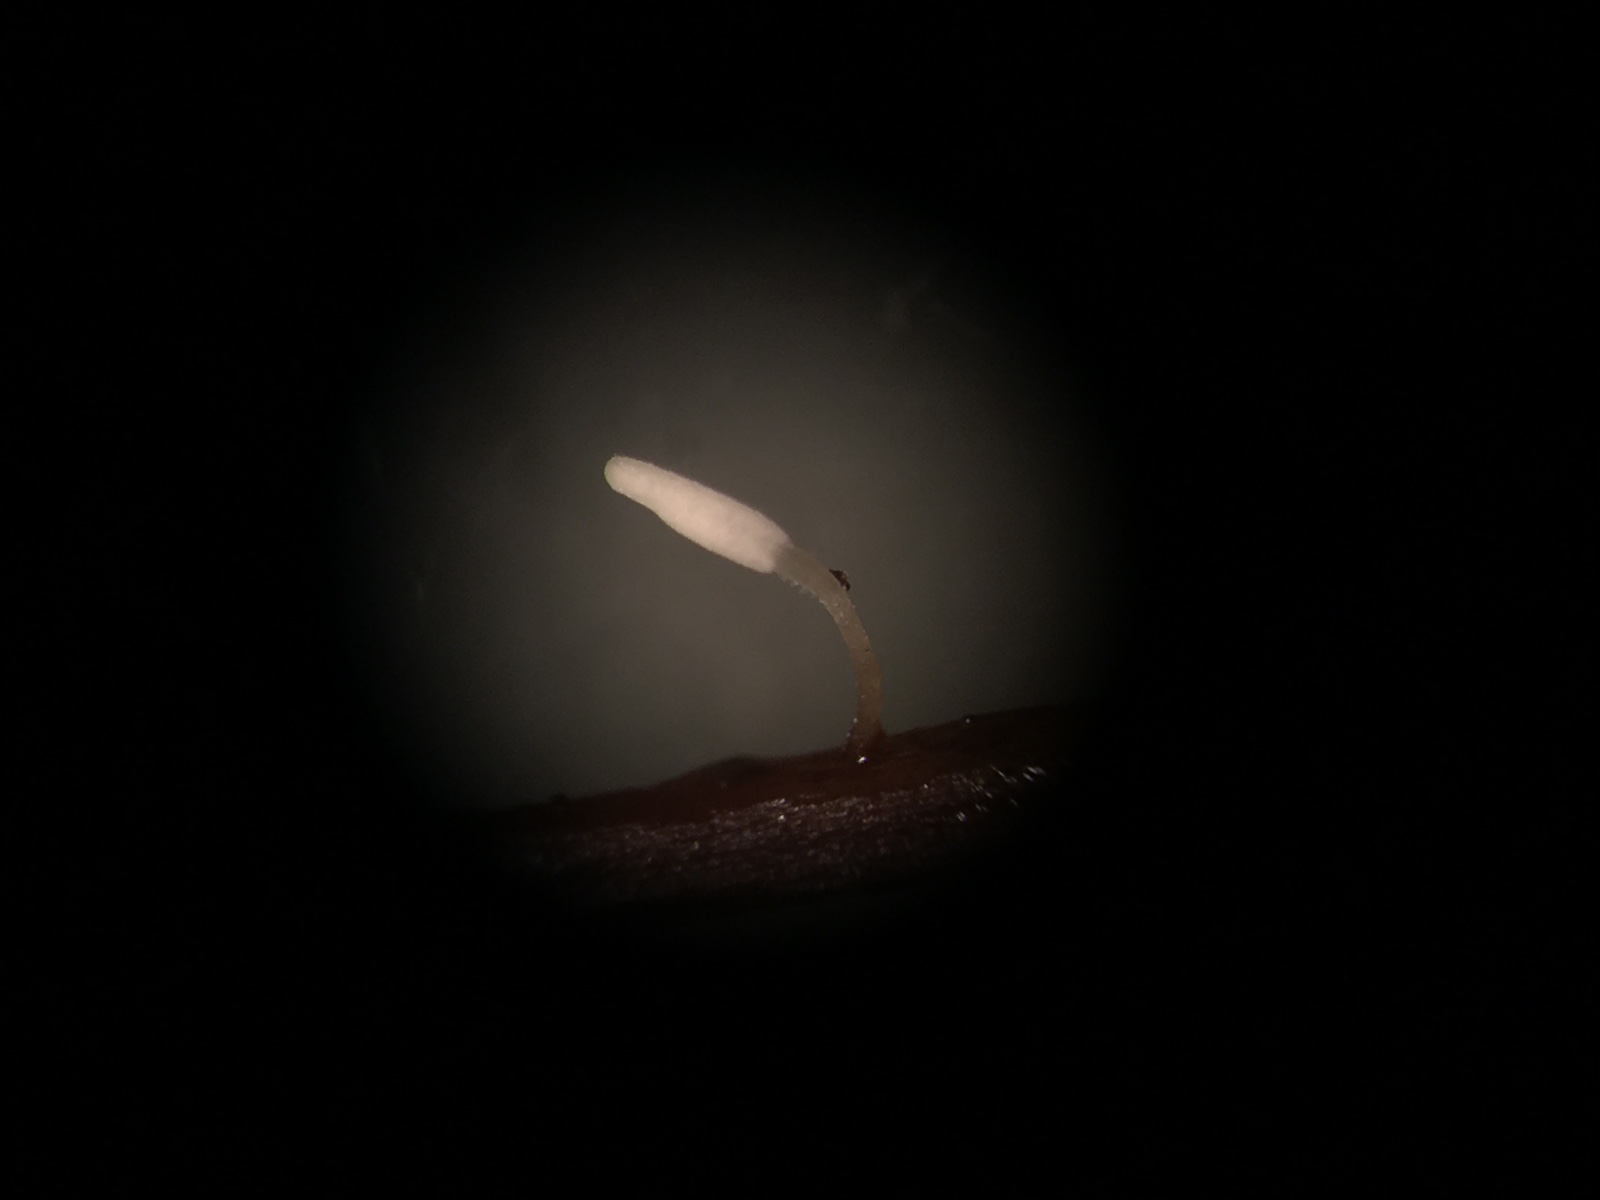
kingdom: Fungi
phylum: Basidiomycota
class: Agaricomycetes
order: Agaricales
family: Typhulaceae
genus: Typhula
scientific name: Typhula setipes
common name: liden trådkølle
